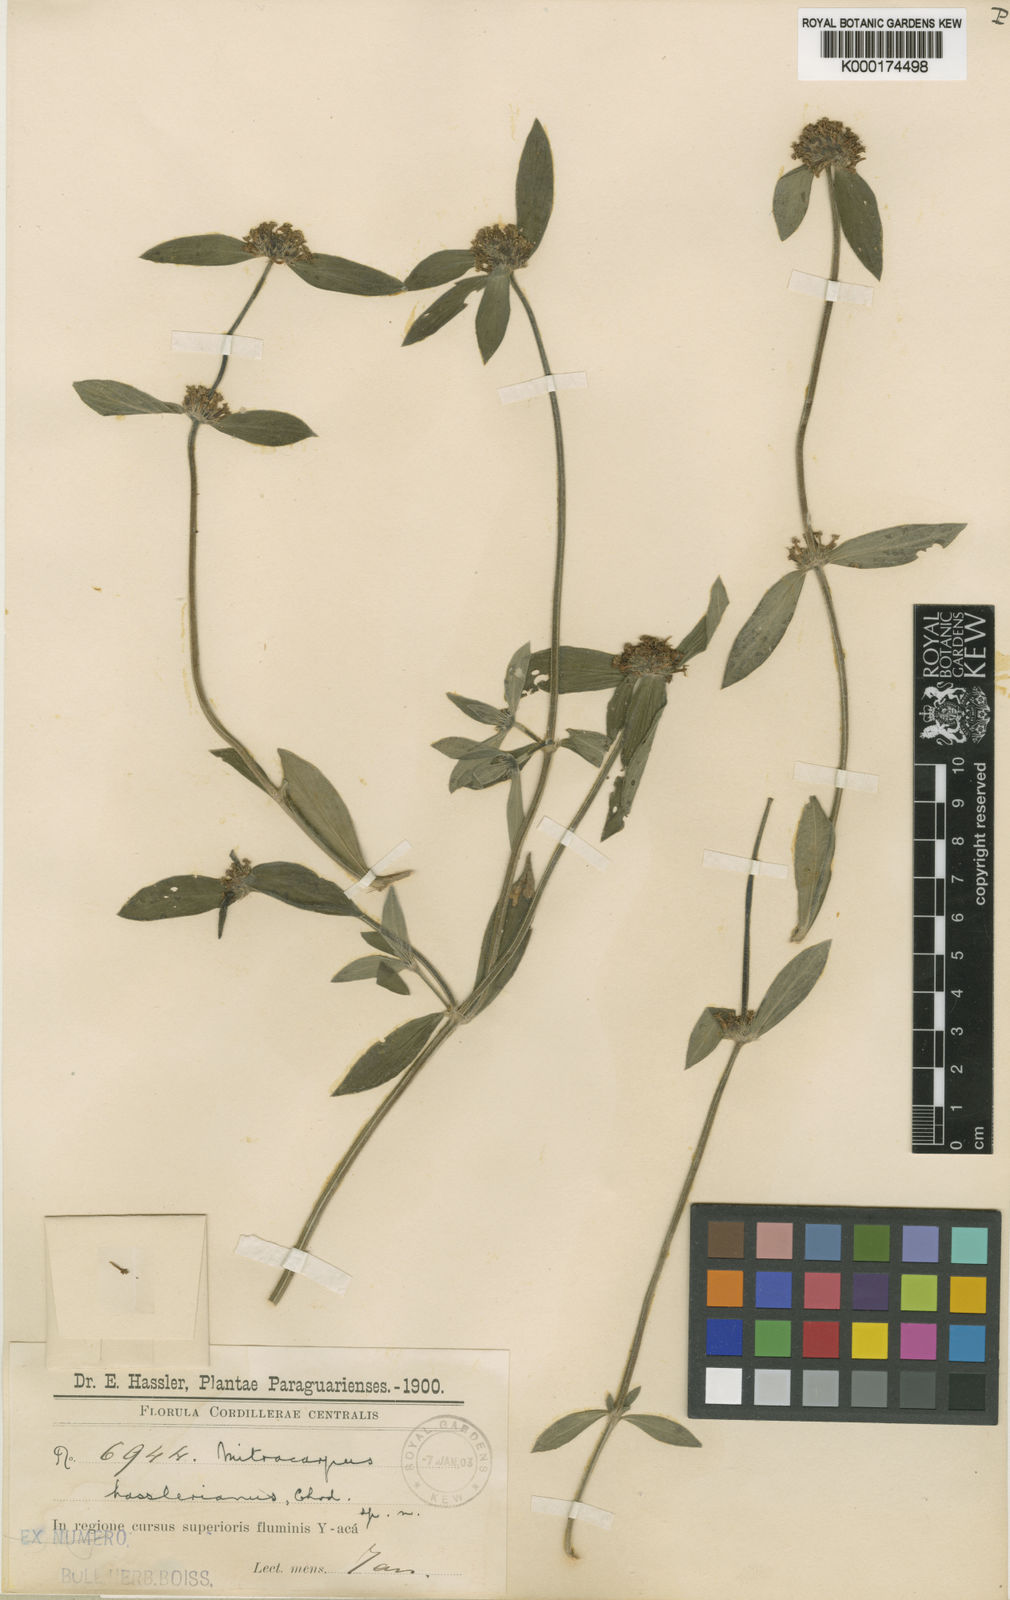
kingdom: Plantae
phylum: Tracheophyta
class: Magnoliopsida
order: Gentianales
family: Rubiaceae
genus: Mitracarpus
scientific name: Mitracarpus hasslerianus
